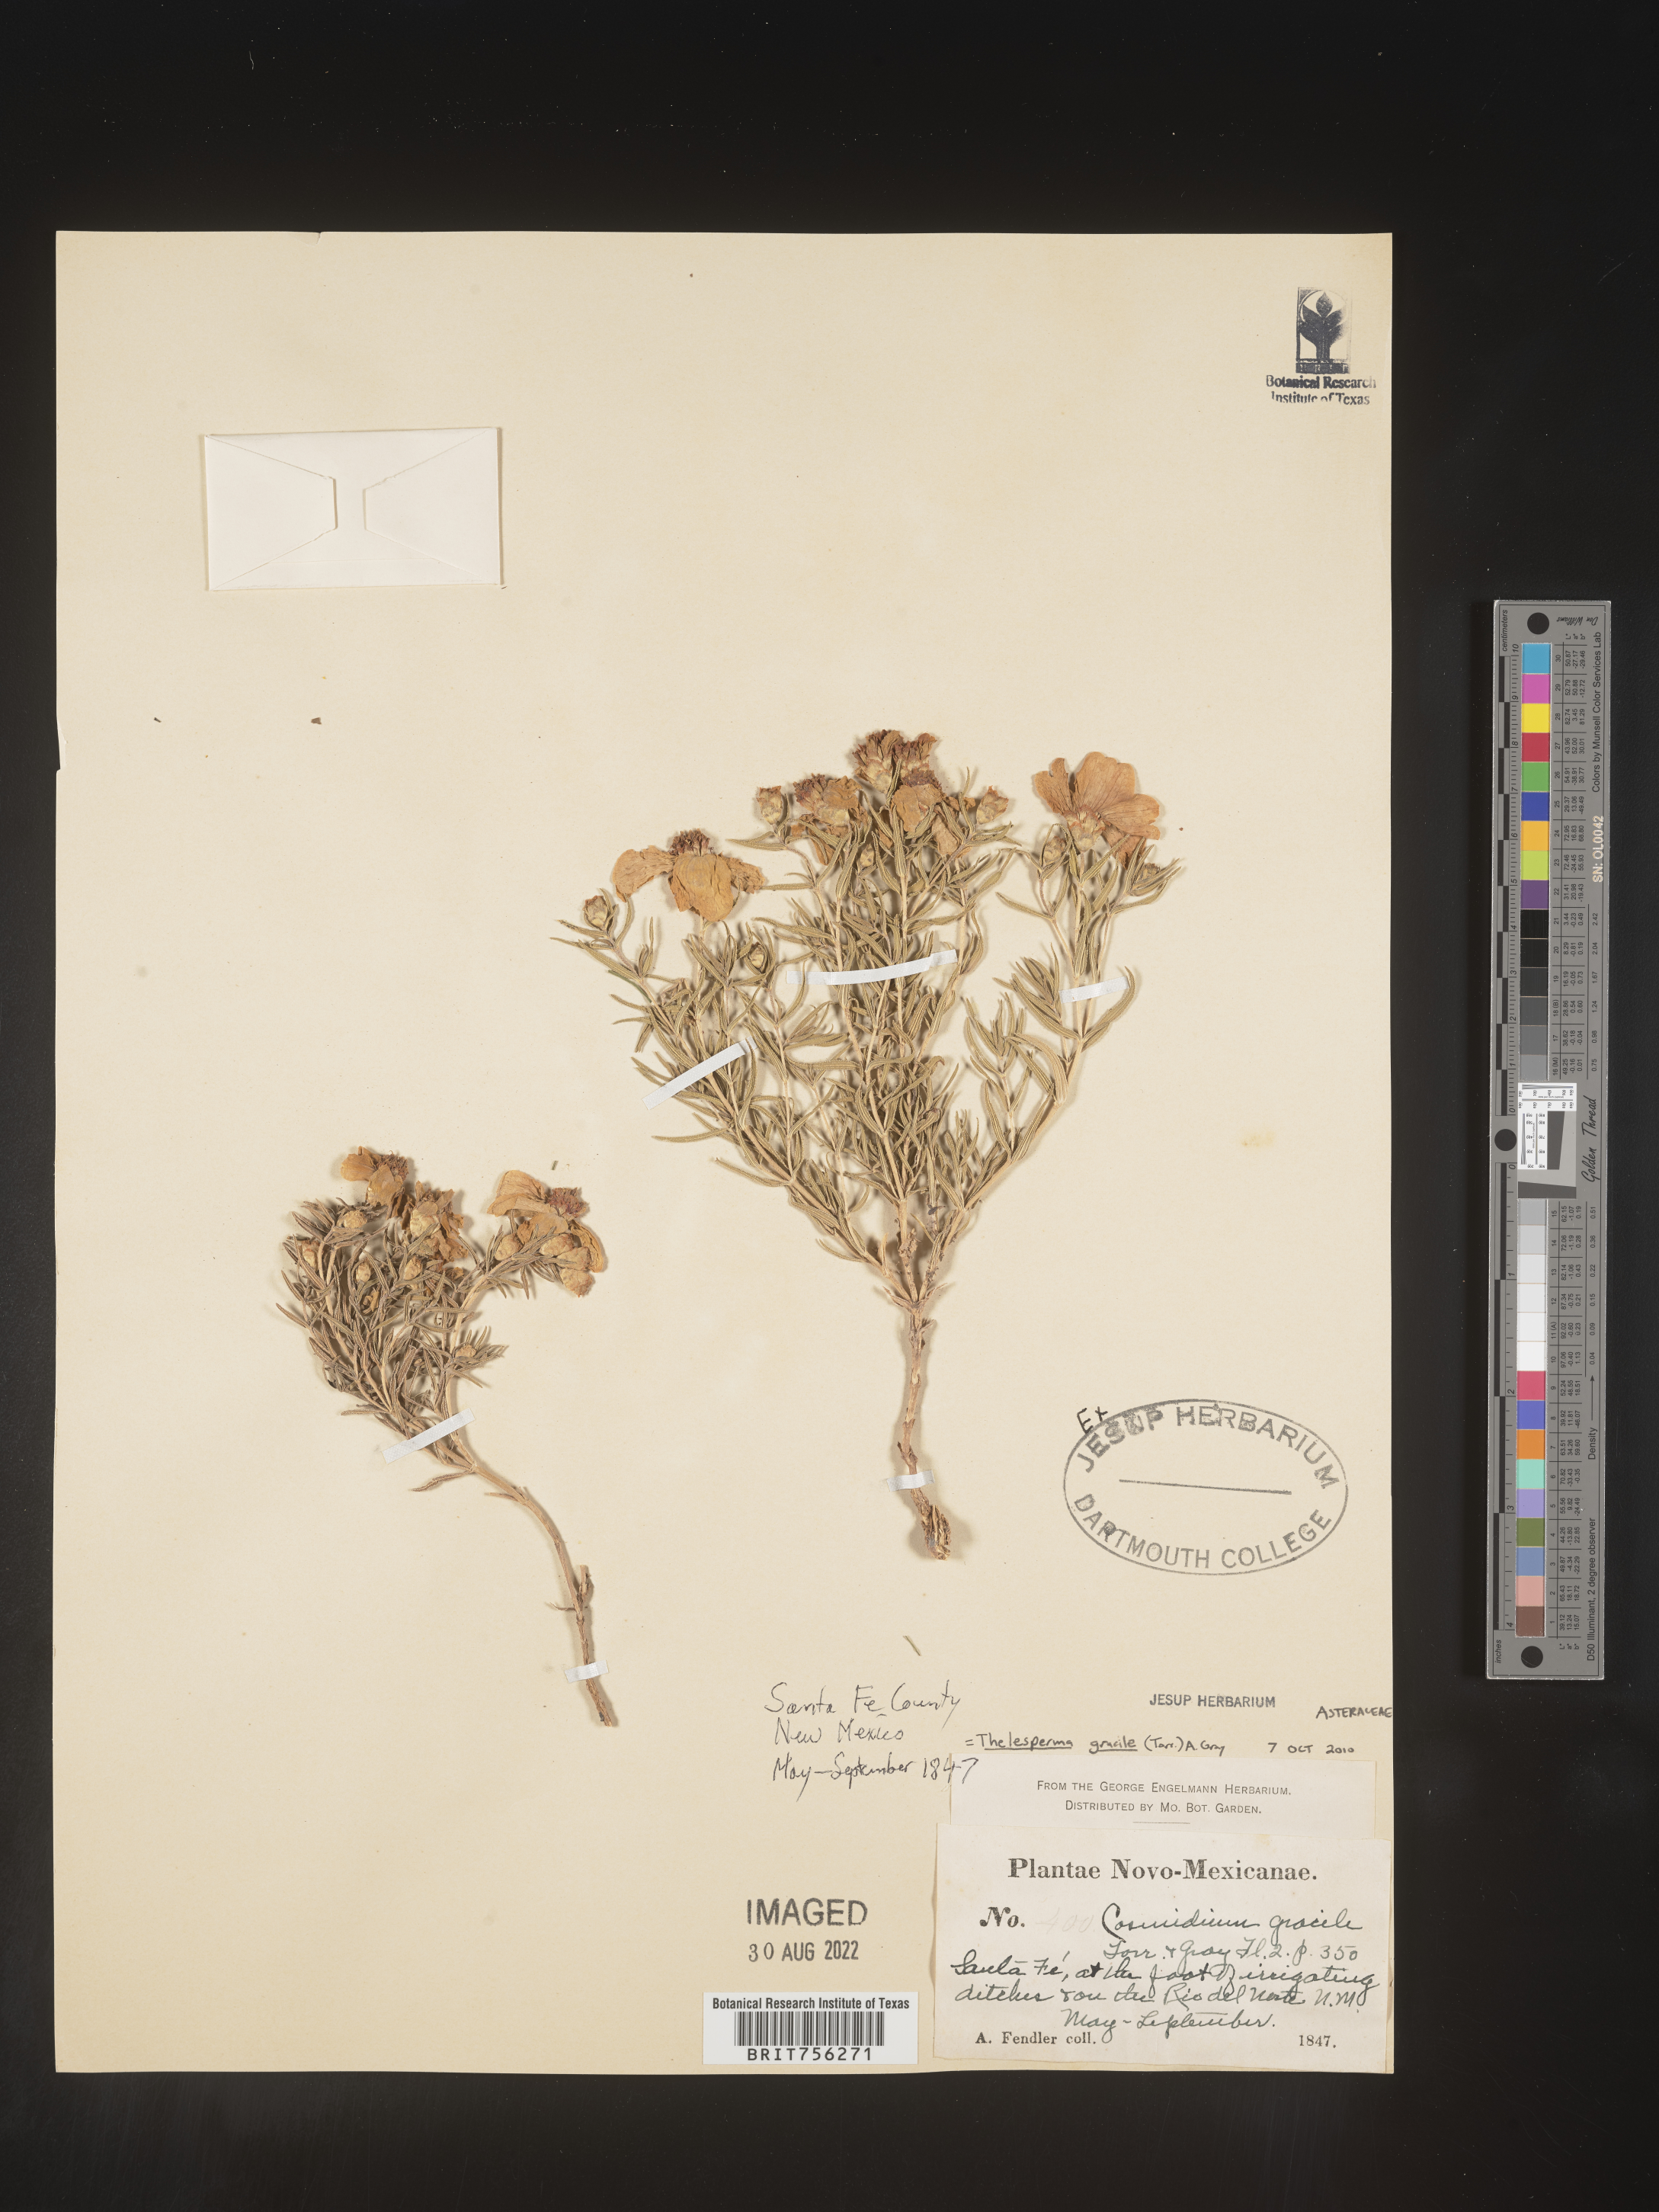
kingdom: Plantae
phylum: Tracheophyta
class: Magnoliopsida
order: Asterales
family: Asteraceae
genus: Thelesperma
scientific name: Thelesperma
